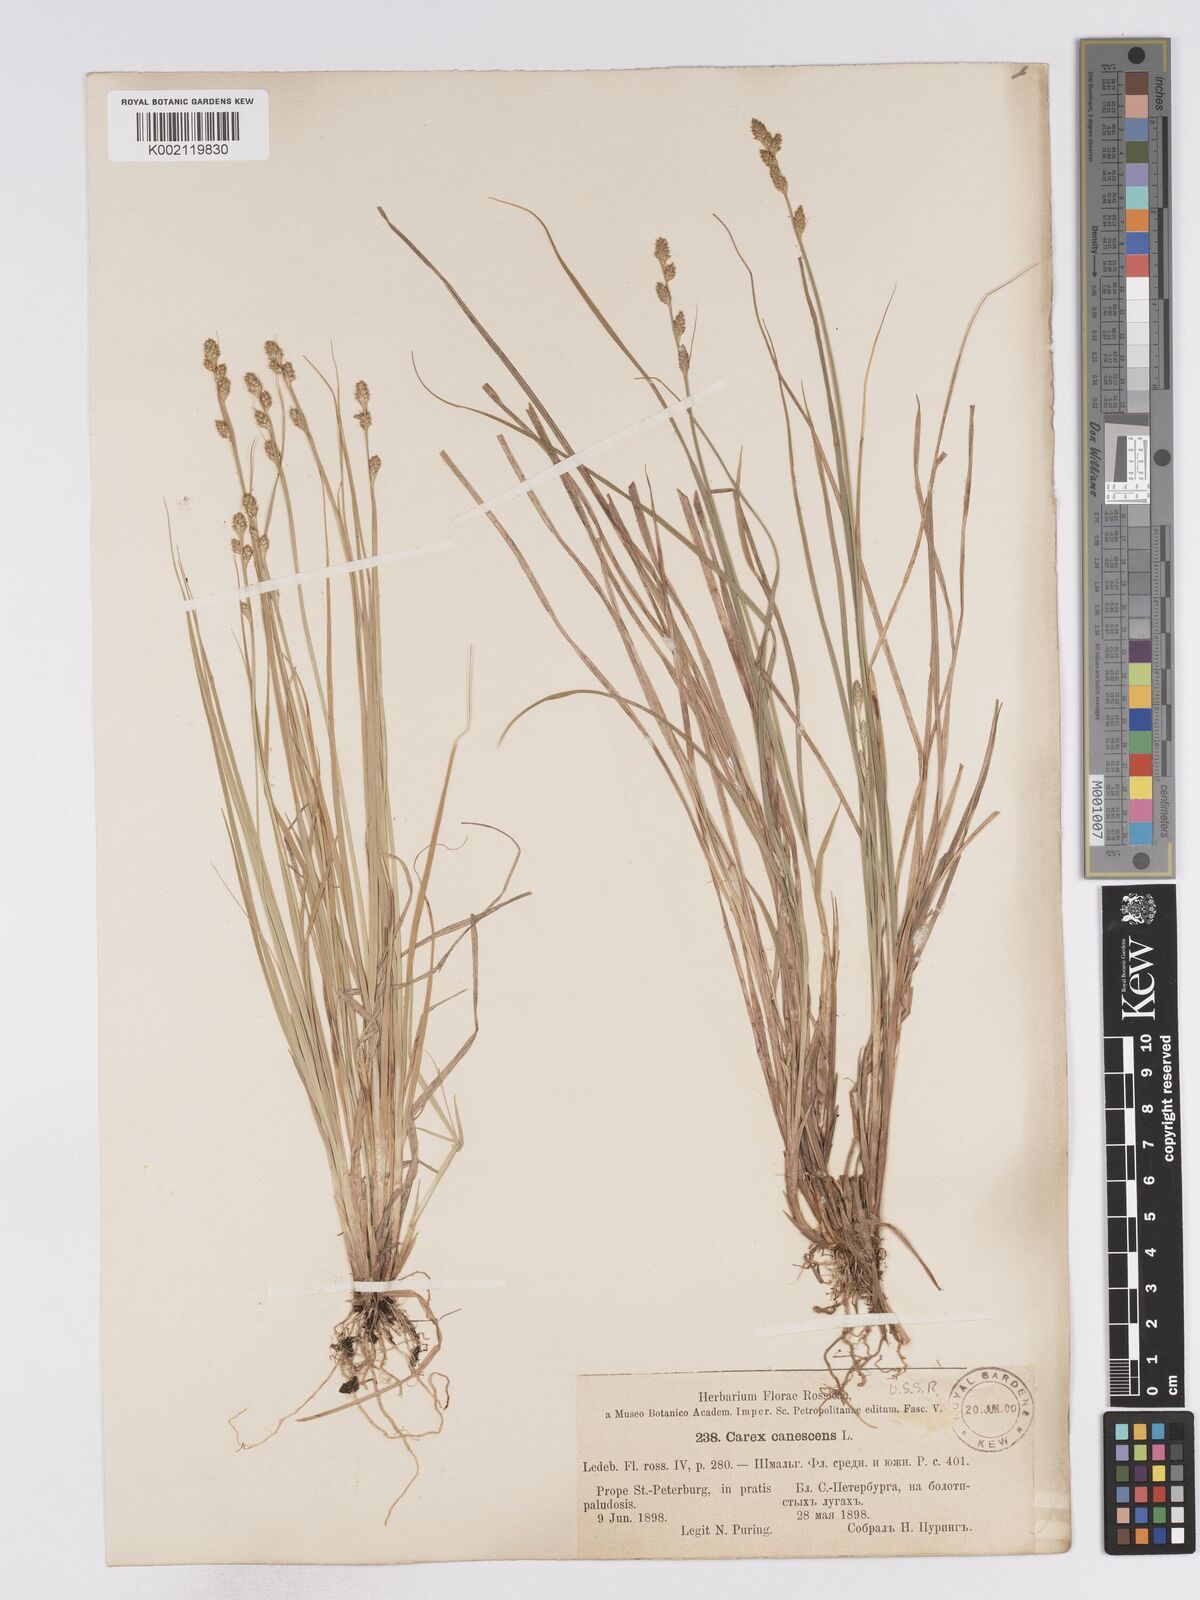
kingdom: Plantae
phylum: Tracheophyta
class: Liliopsida
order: Poales
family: Cyperaceae
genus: Carex
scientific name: Carex curta
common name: White sedge
